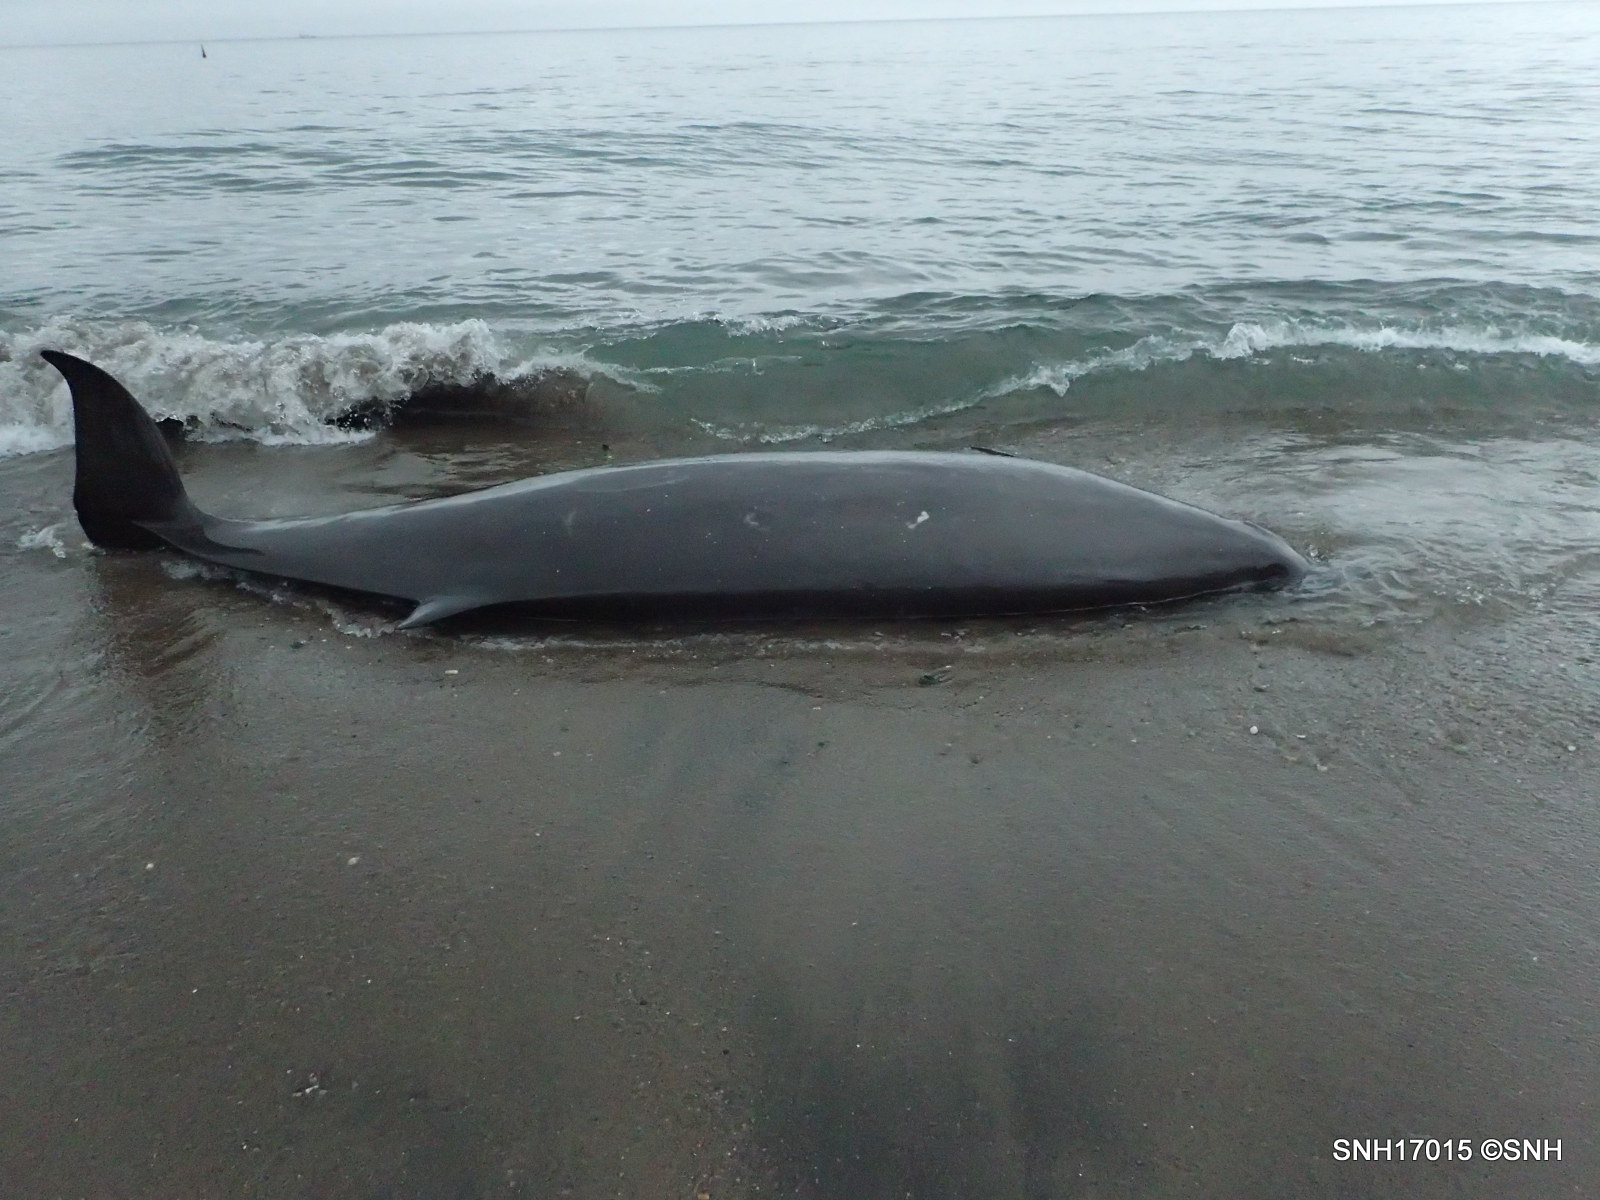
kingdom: Animalia
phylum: Chordata
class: Mammalia
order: Cetacea
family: Hyperoodontidae
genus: Mesoplodon
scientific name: Mesoplodon stejnegeri
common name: Stejneger's beaked whale
